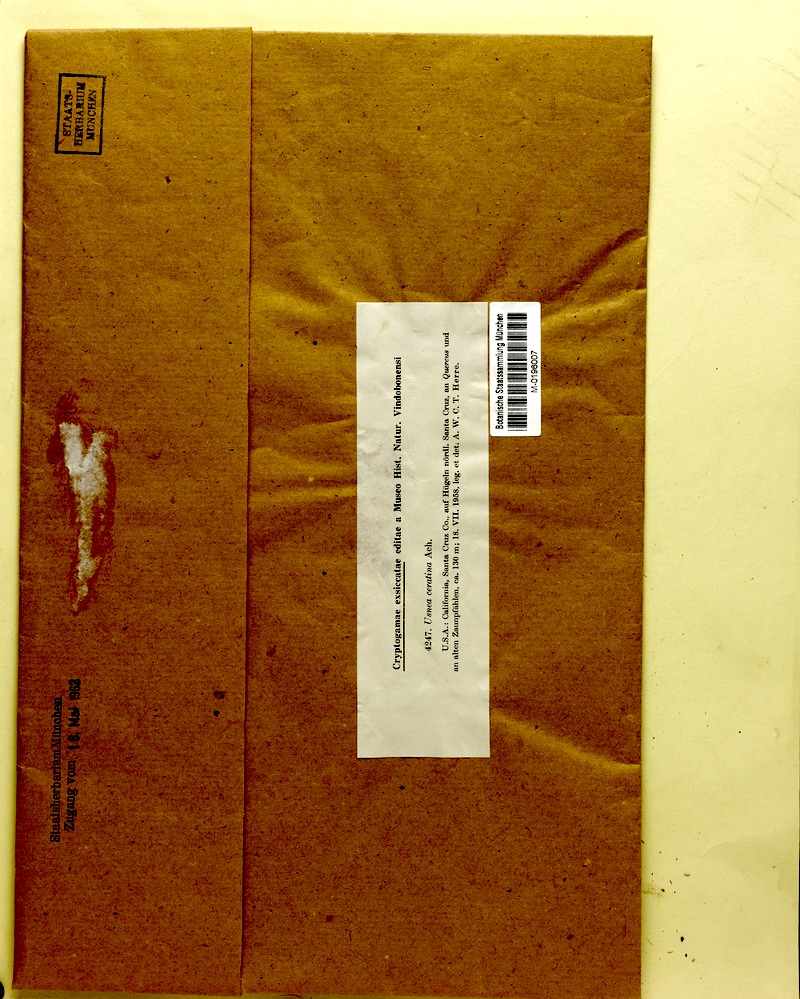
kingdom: Fungi
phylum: Ascomycota
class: Lecanoromycetes
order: Lecanorales
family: Parmeliaceae
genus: Usnea
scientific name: Usnea ceratina
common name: Warty beard lichen
